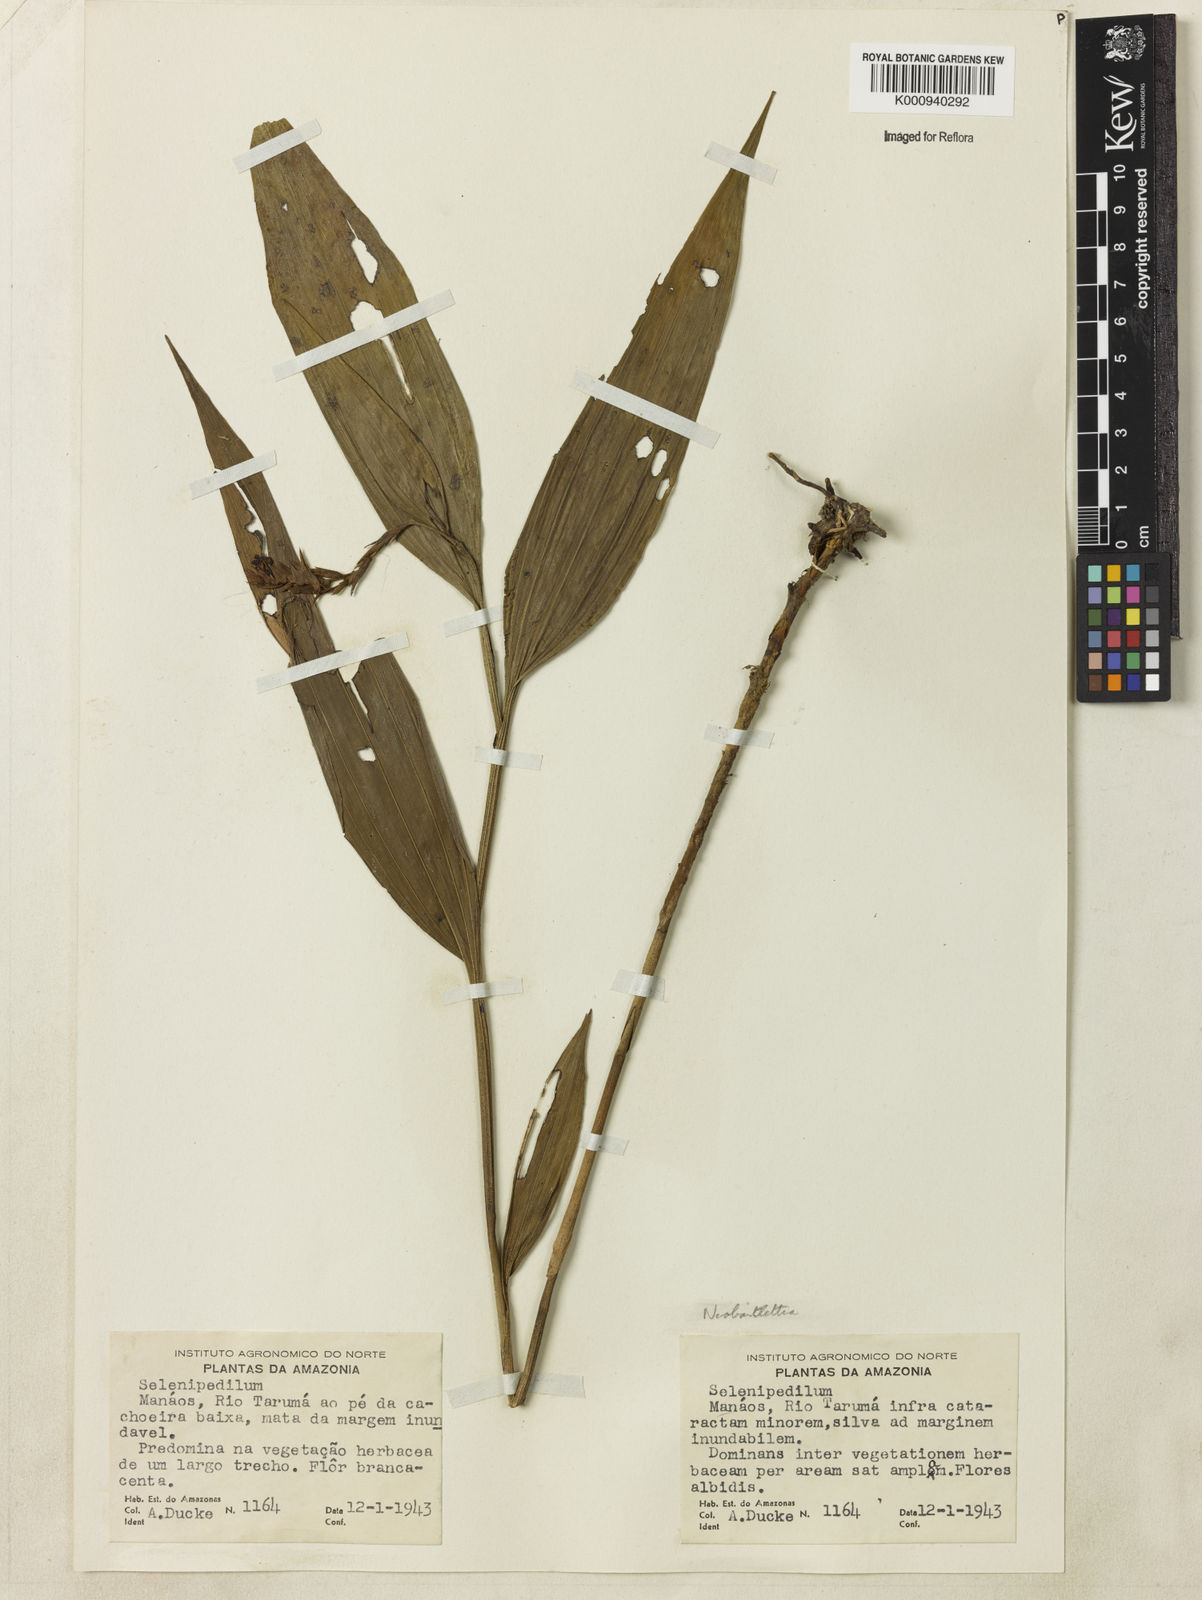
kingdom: Plantae
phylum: Tracheophyta
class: Liliopsida
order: Asparagales
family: Orchidaceae
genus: Palmorchis
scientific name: Palmorchis
